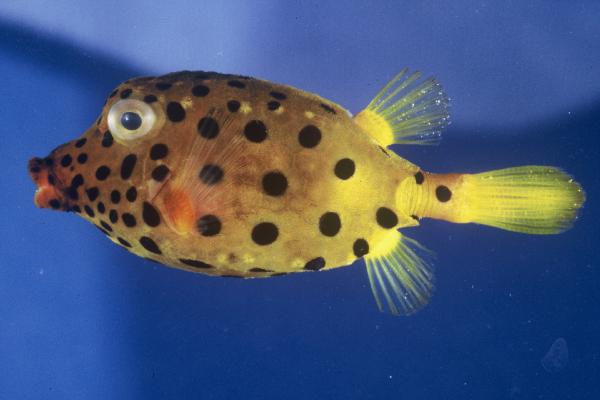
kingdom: Animalia
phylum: Chordata
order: Tetraodontiformes
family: Ostraciidae
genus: Ostracion
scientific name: Ostracion cubicus
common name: Cube trunkfish
